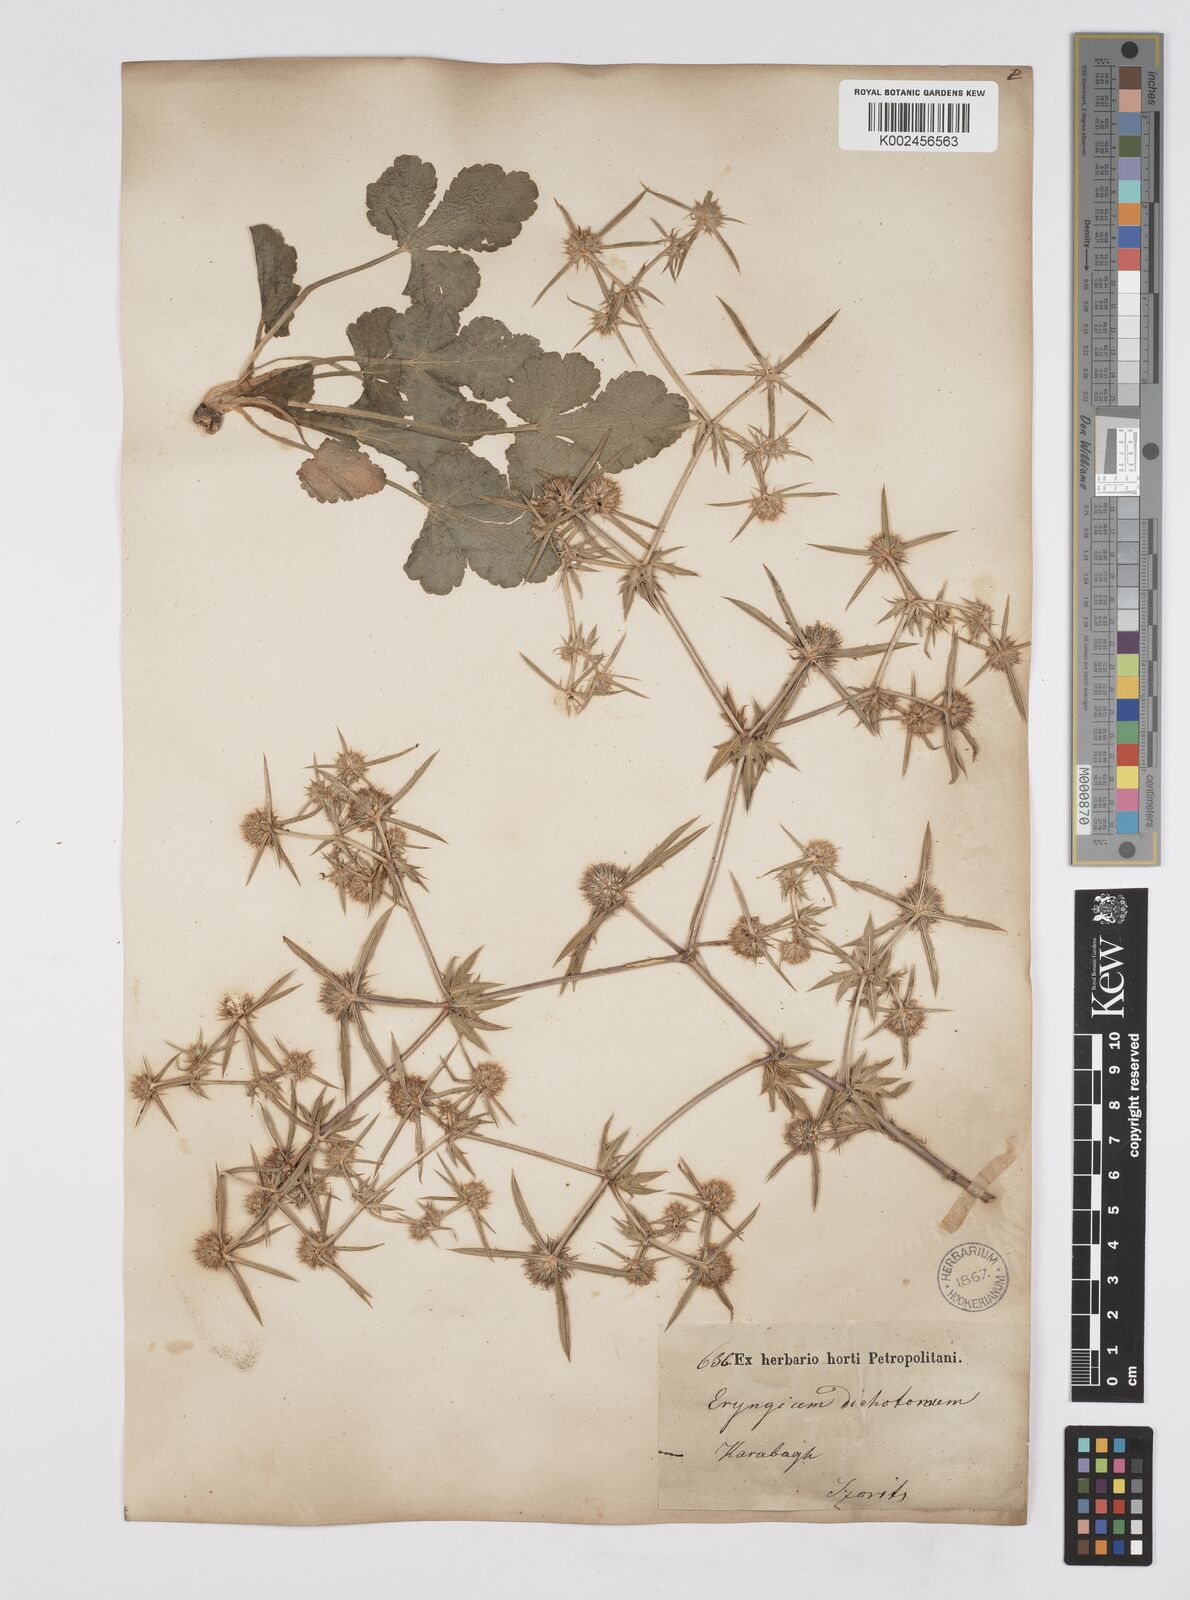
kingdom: Plantae
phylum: Tracheophyta
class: Magnoliopsida
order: Apiales
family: Apiaceae
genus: Eryngium
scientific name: Eryngium caeruleum
